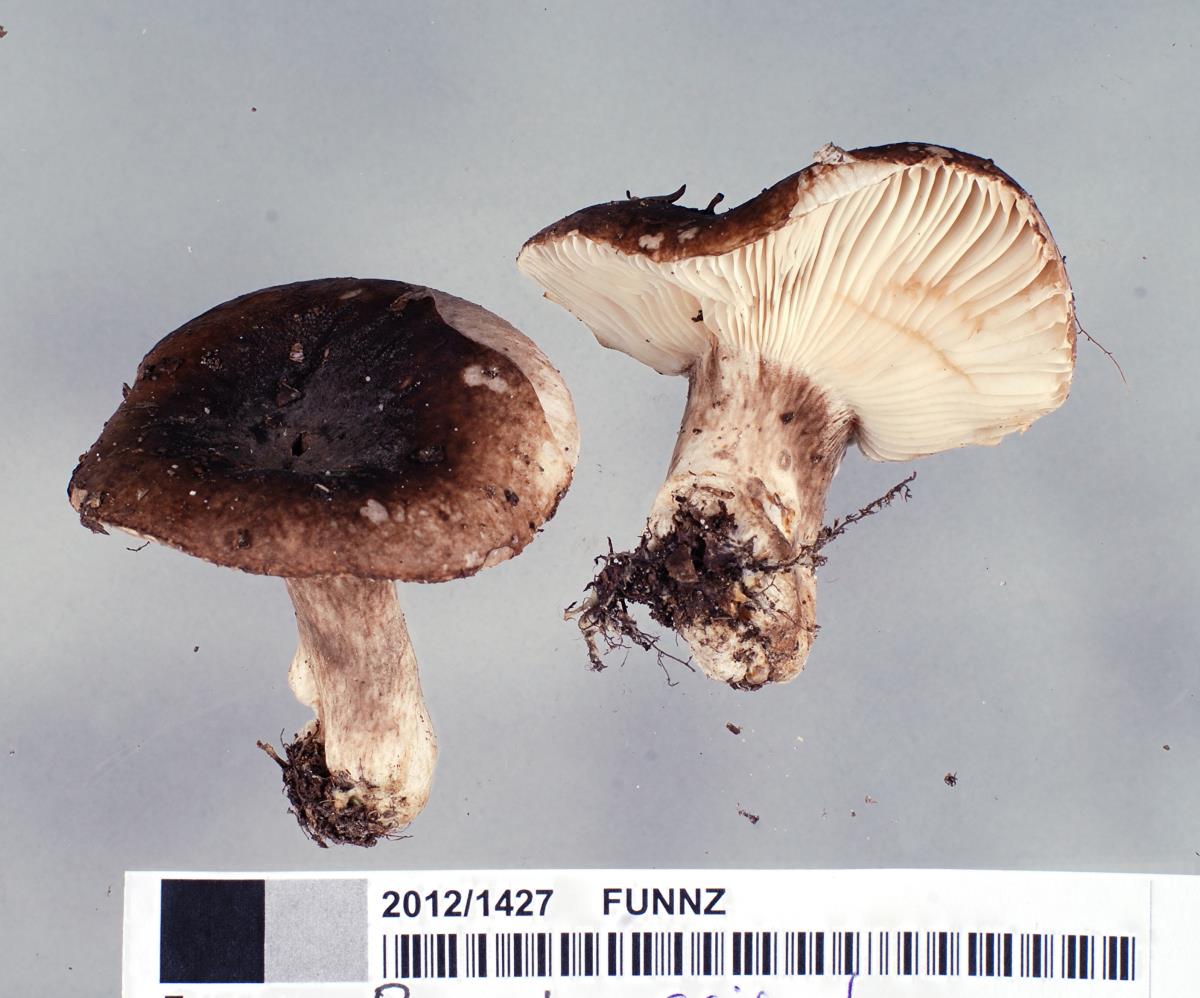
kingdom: Fungi
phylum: Basidiomycota
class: Agaricomycetes
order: Russulales
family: Russulaceae
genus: Russula
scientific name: Russula griseostipitata
